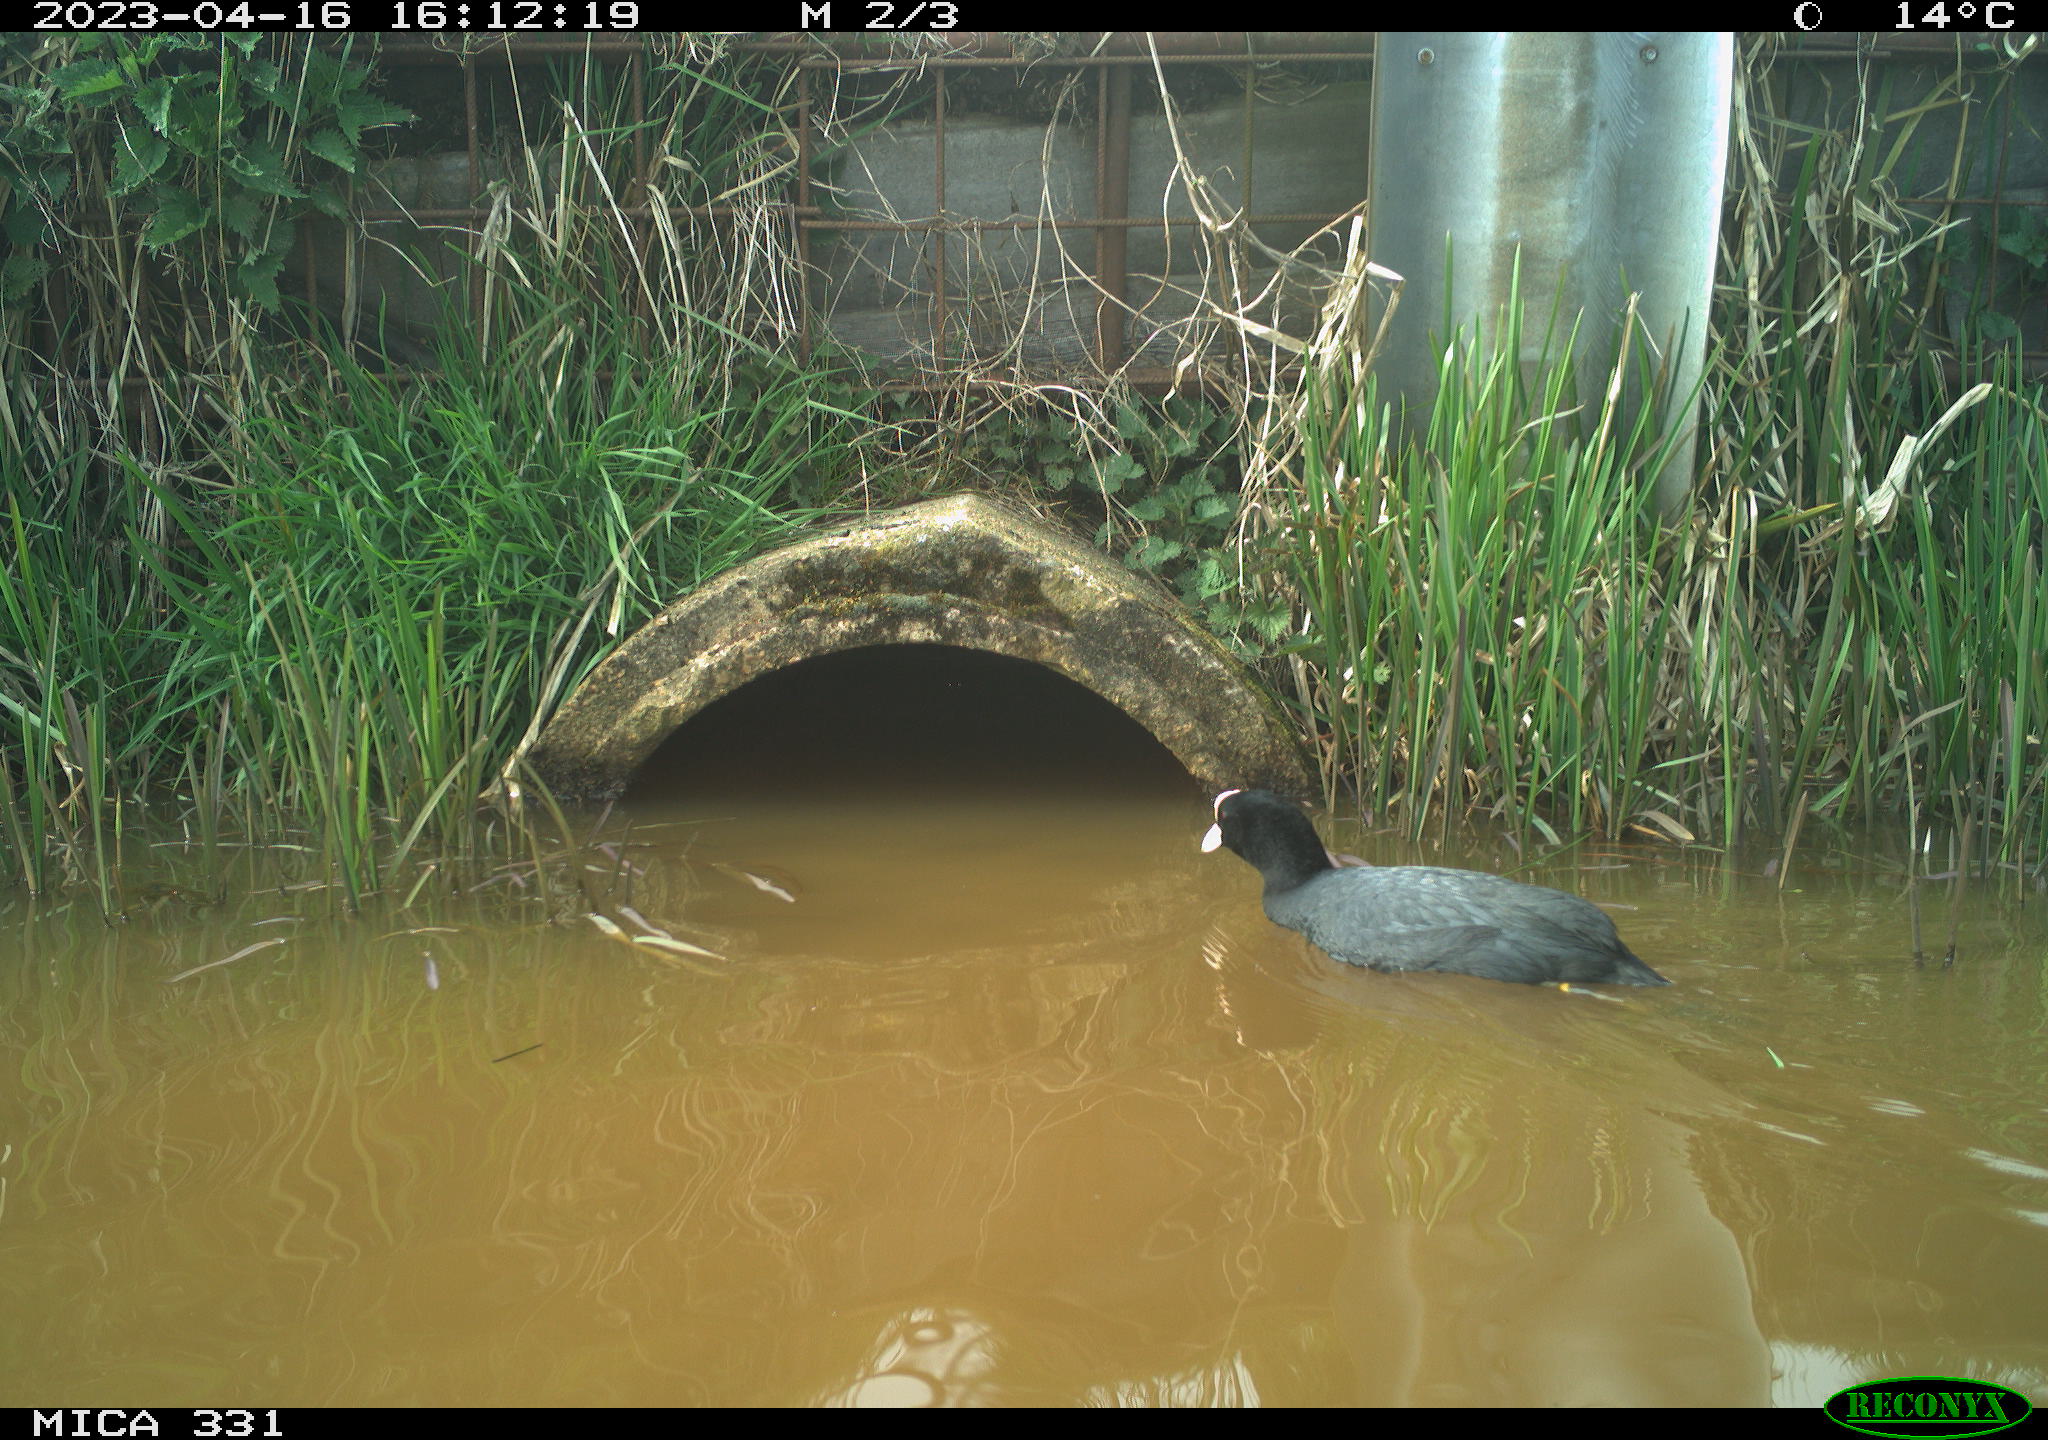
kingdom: Animalia
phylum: Chordata
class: Aves
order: Gruiformes
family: Rallidae
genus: Fulica
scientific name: Fulica atra
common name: Eurasian coot
